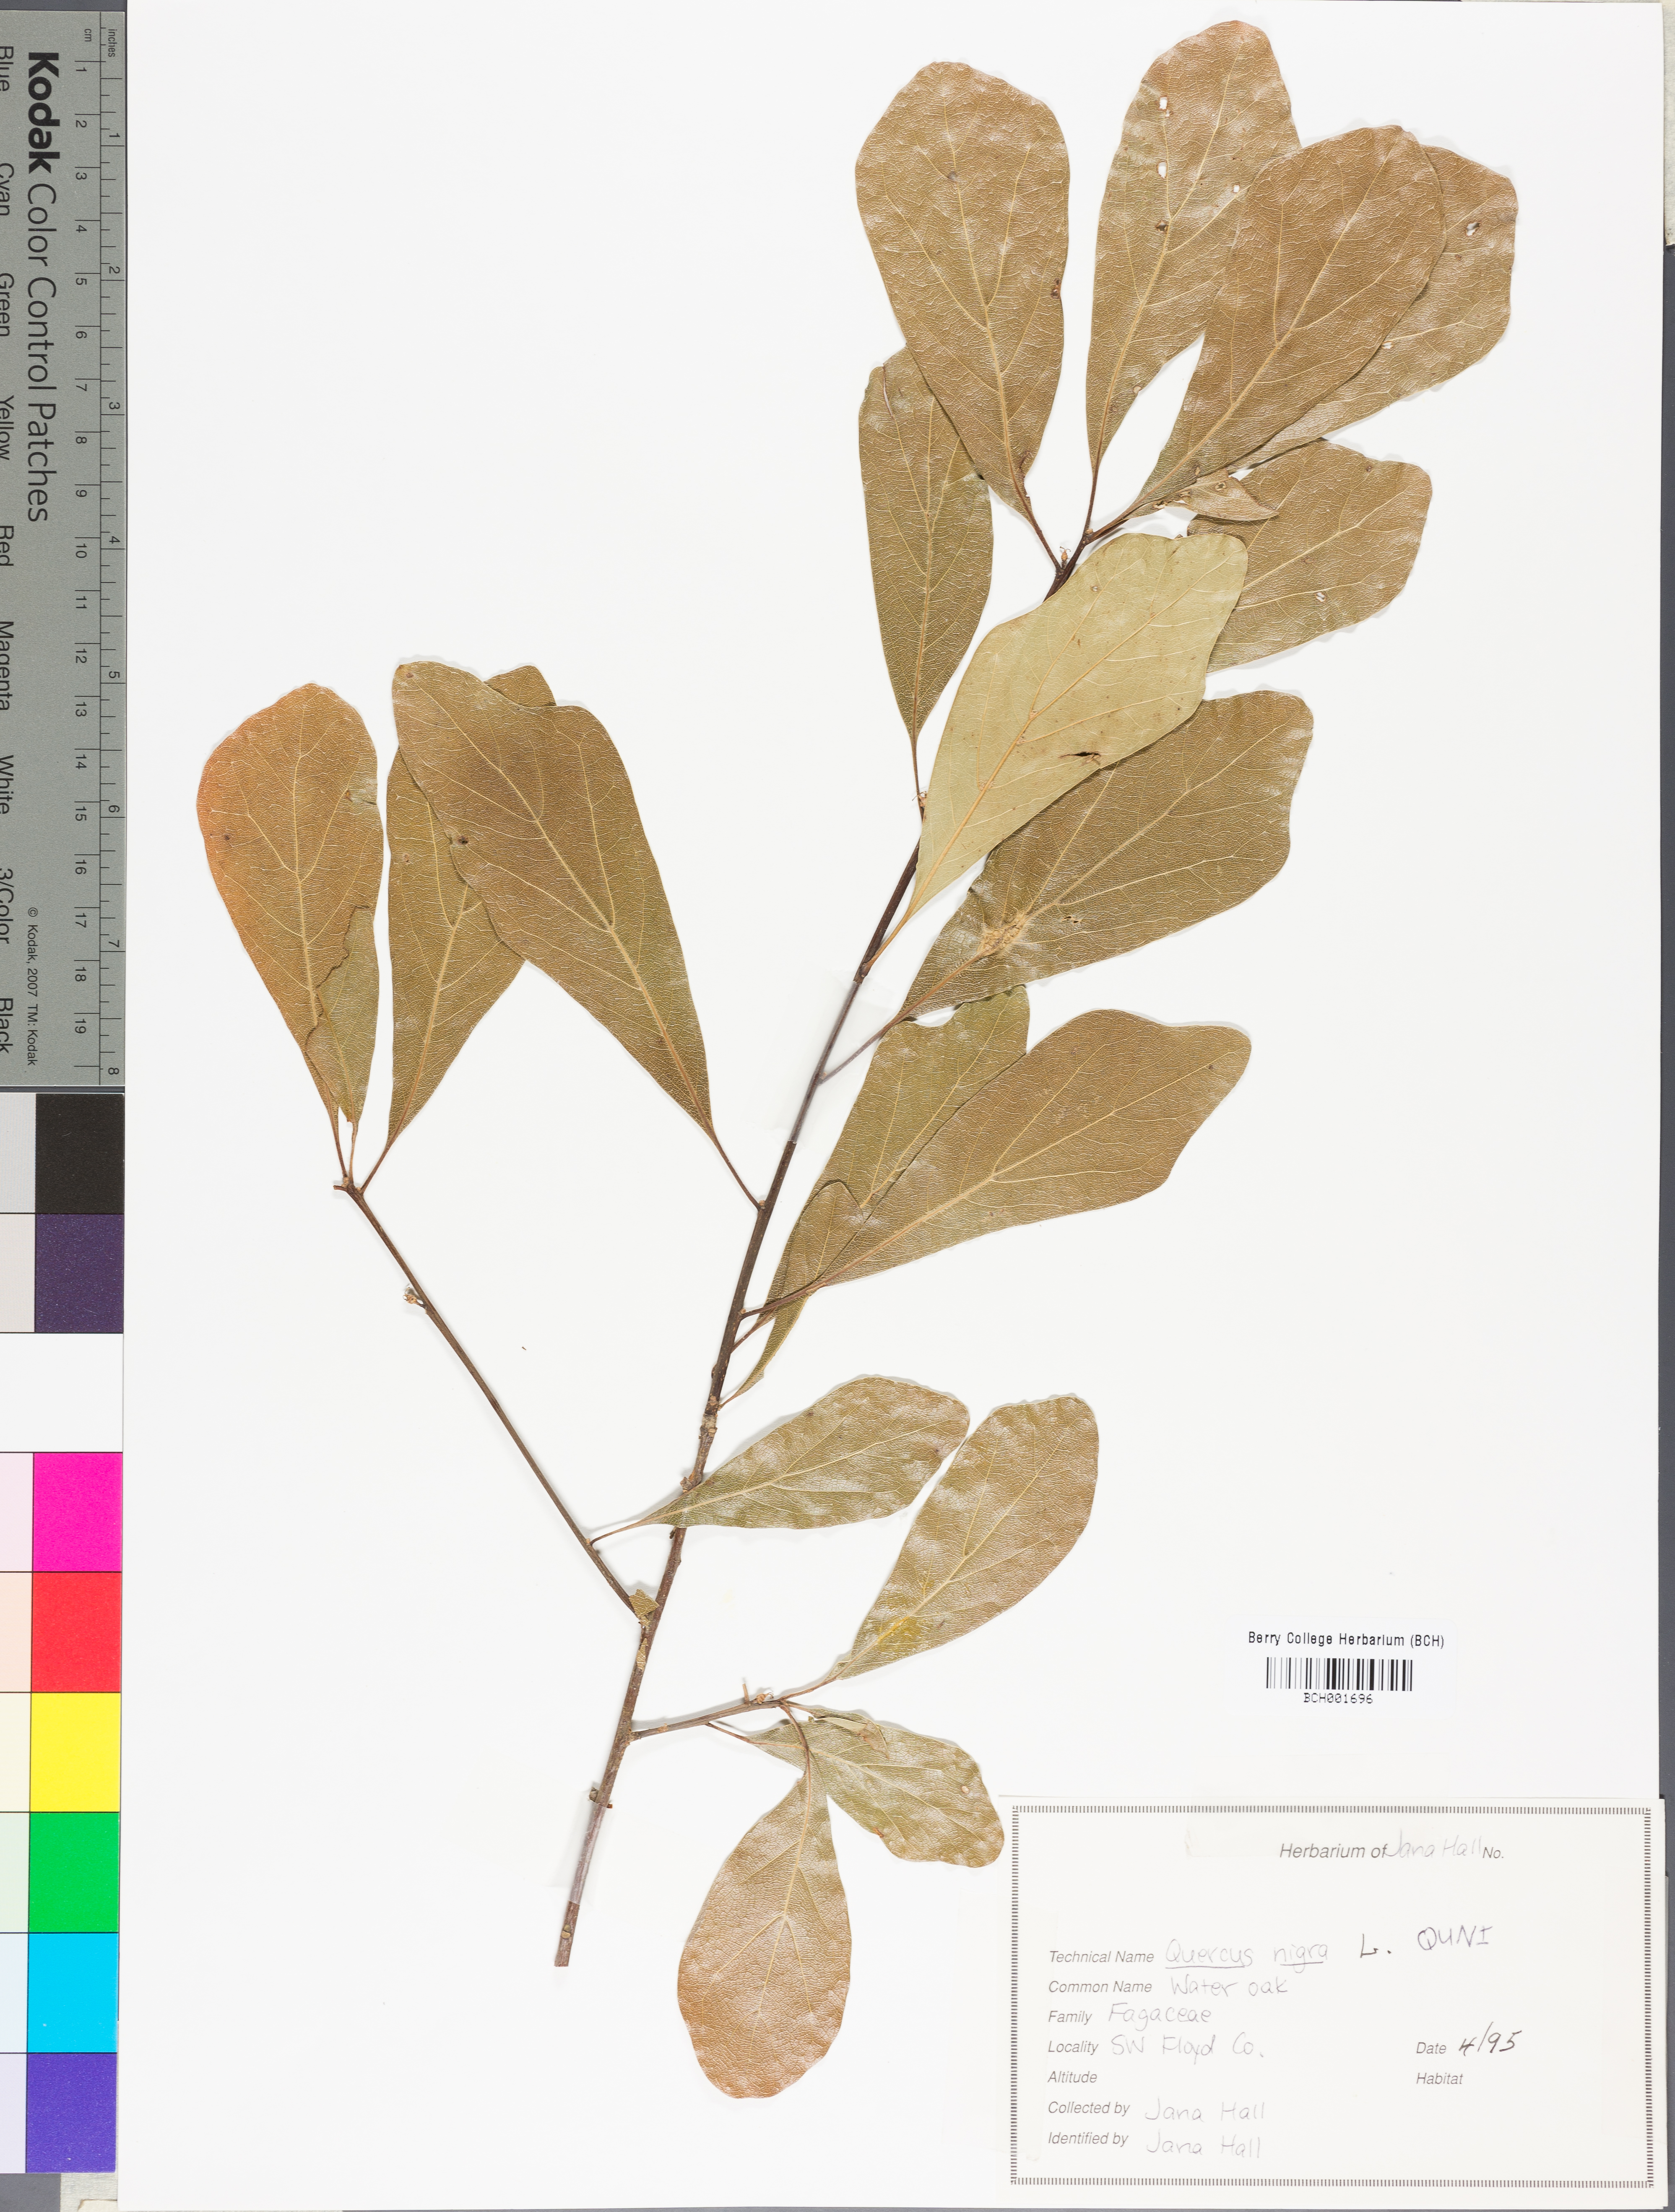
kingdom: Plantae
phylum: Tracheophyta
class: Magnoliopsida
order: Fagales
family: Fagaceae
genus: Quercus
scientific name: Quercus nigra
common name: Water oak
